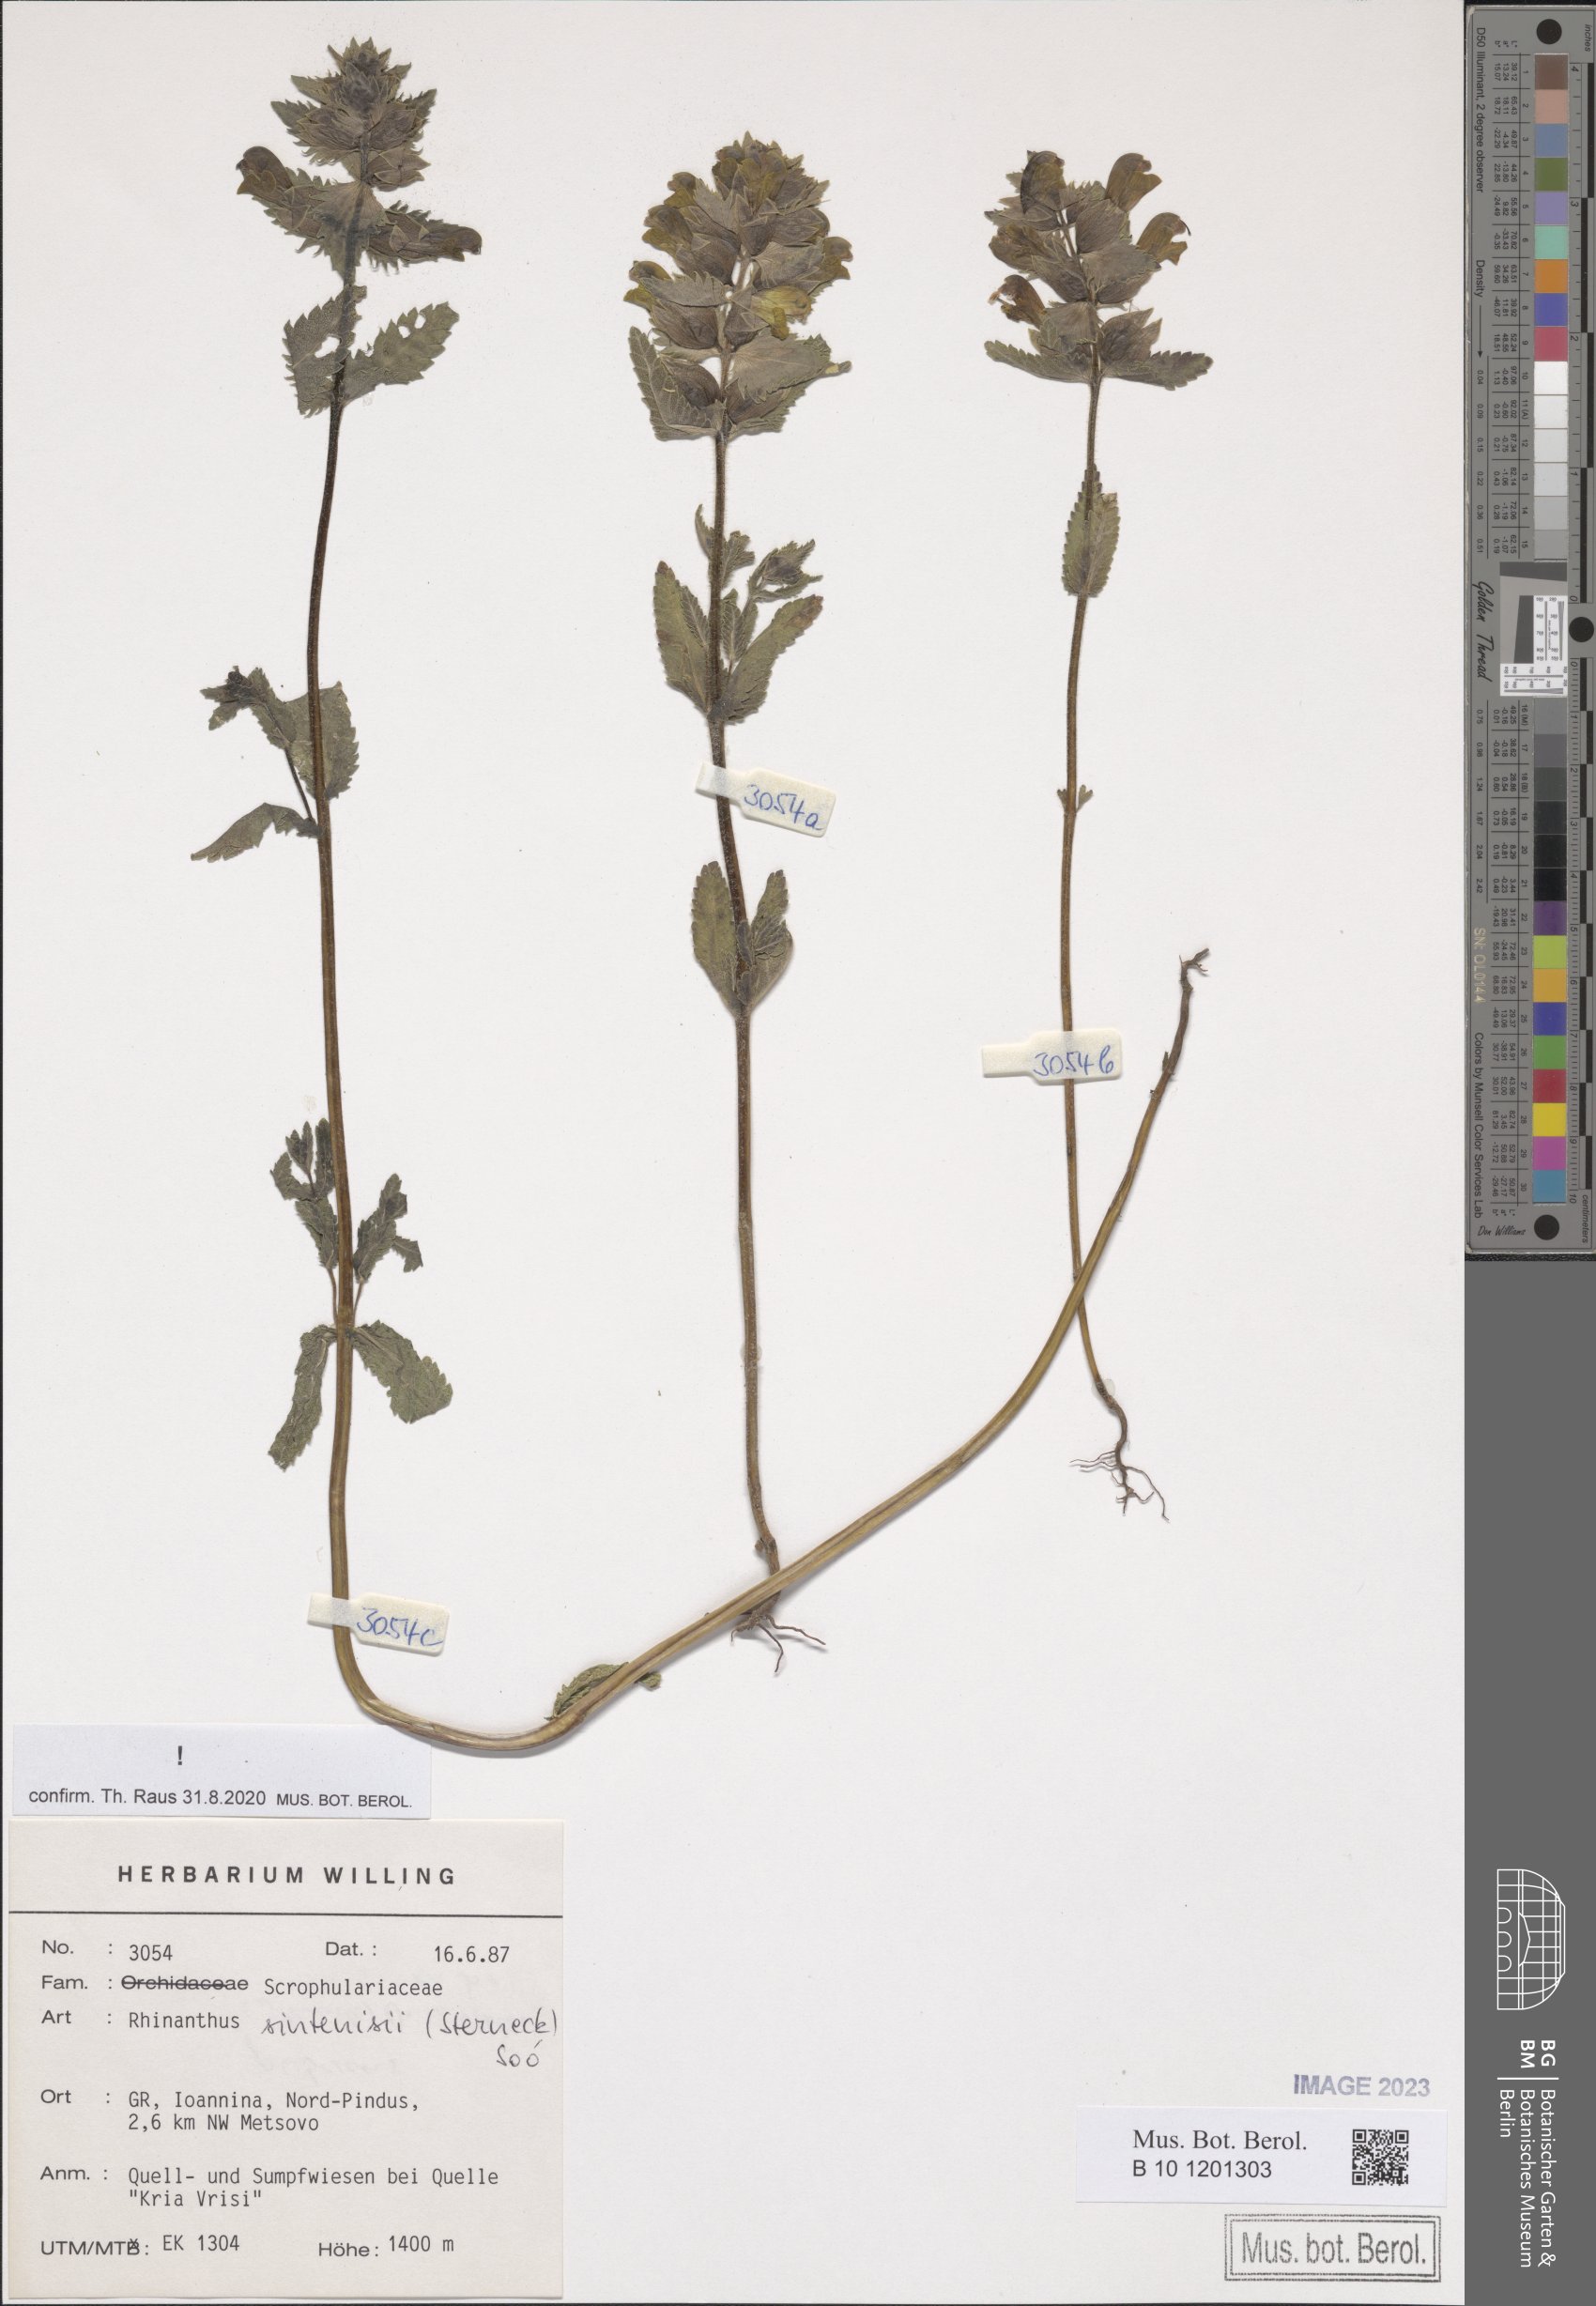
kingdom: Plantae
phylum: Tracheophyta
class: Magnoliopsida
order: Lamiales
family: Orobanchaceae
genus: Rhinanthus
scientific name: Rhinanthus sintenisii
